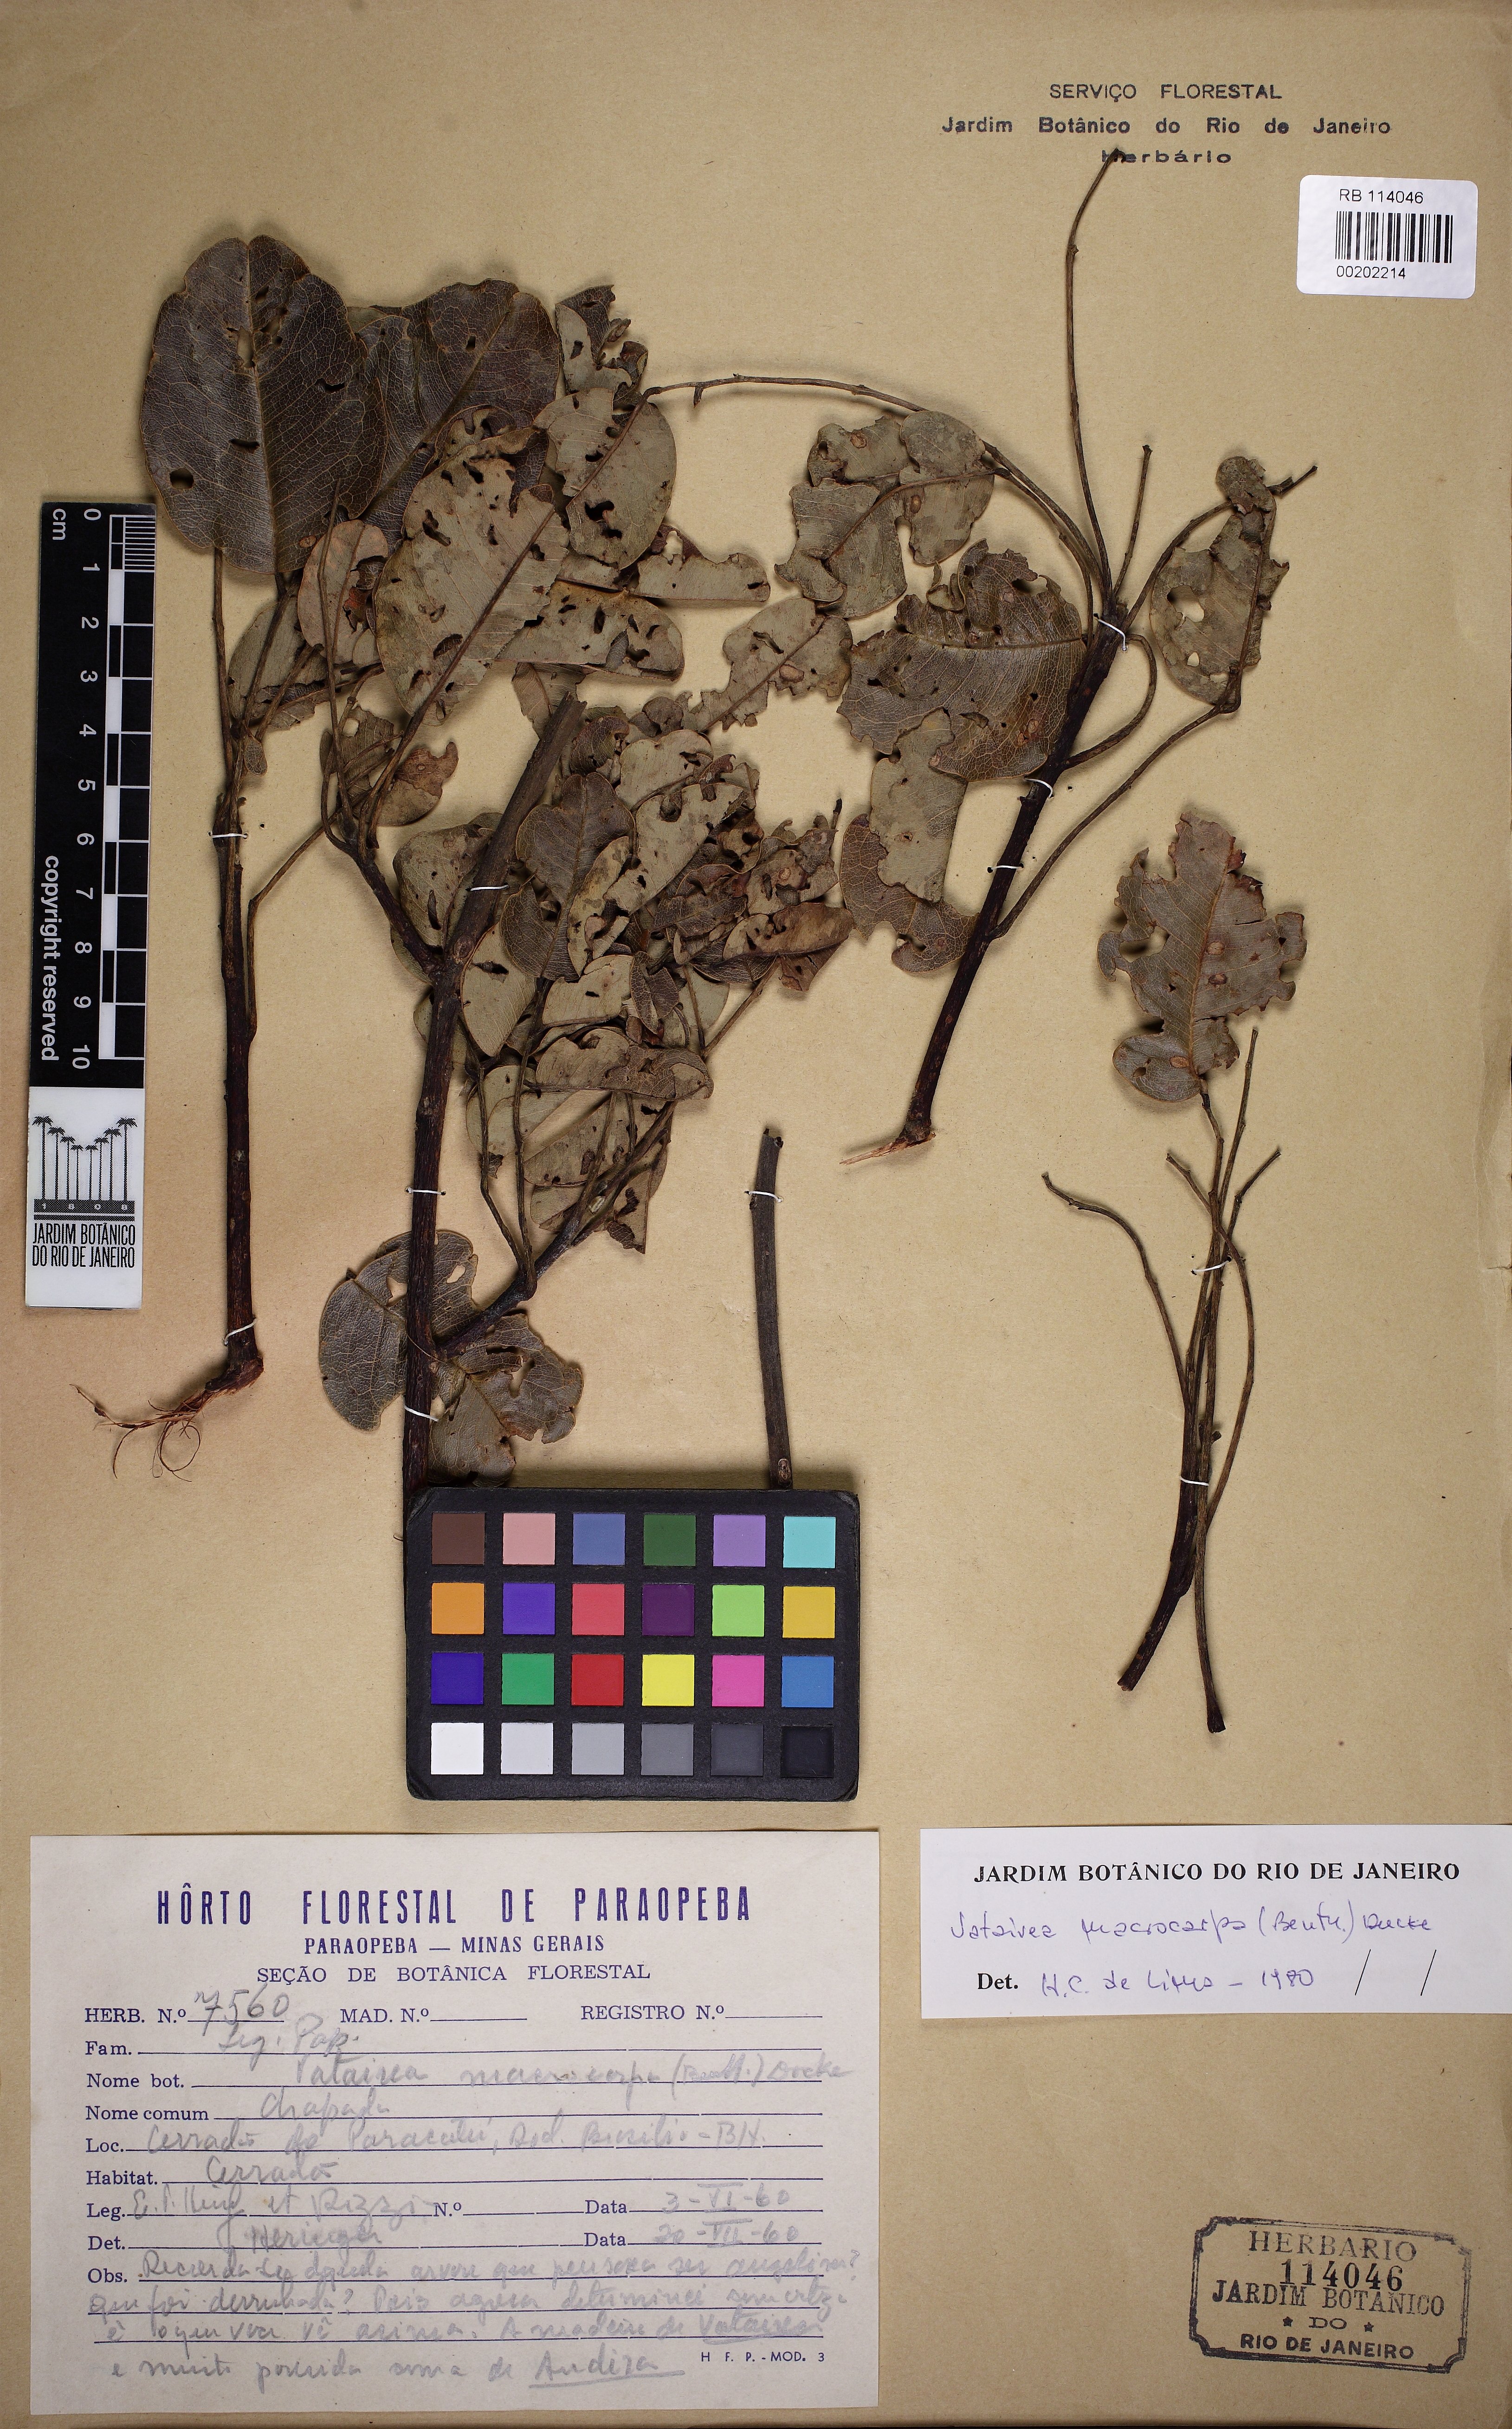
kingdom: Plantae
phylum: Tracheophyta
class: Magnoliopsida
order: Fabales
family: Fabaceae
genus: Vatairea
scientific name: Vatairea macrocarpa
